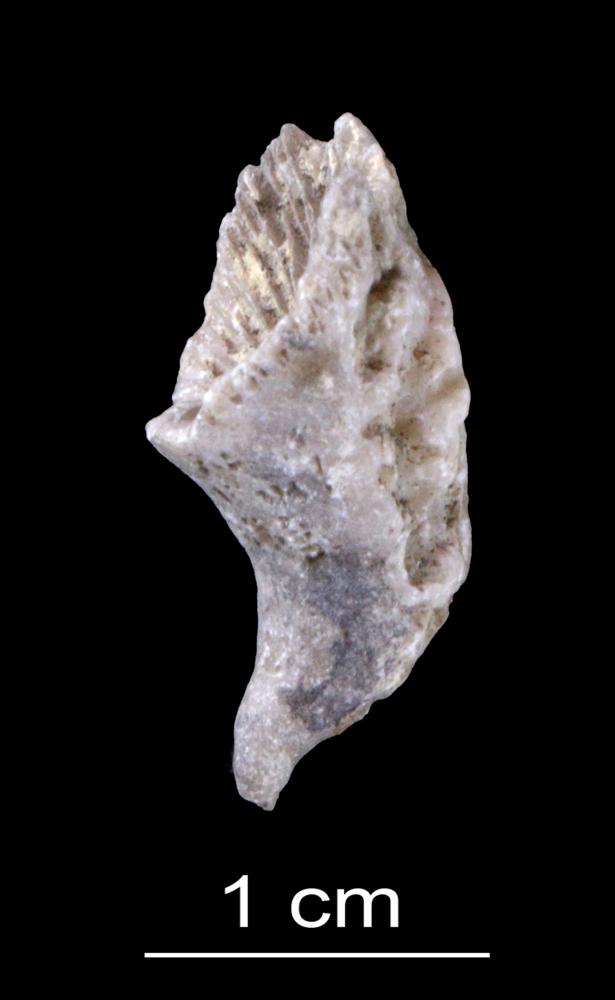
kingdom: Animalia
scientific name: Animalia
